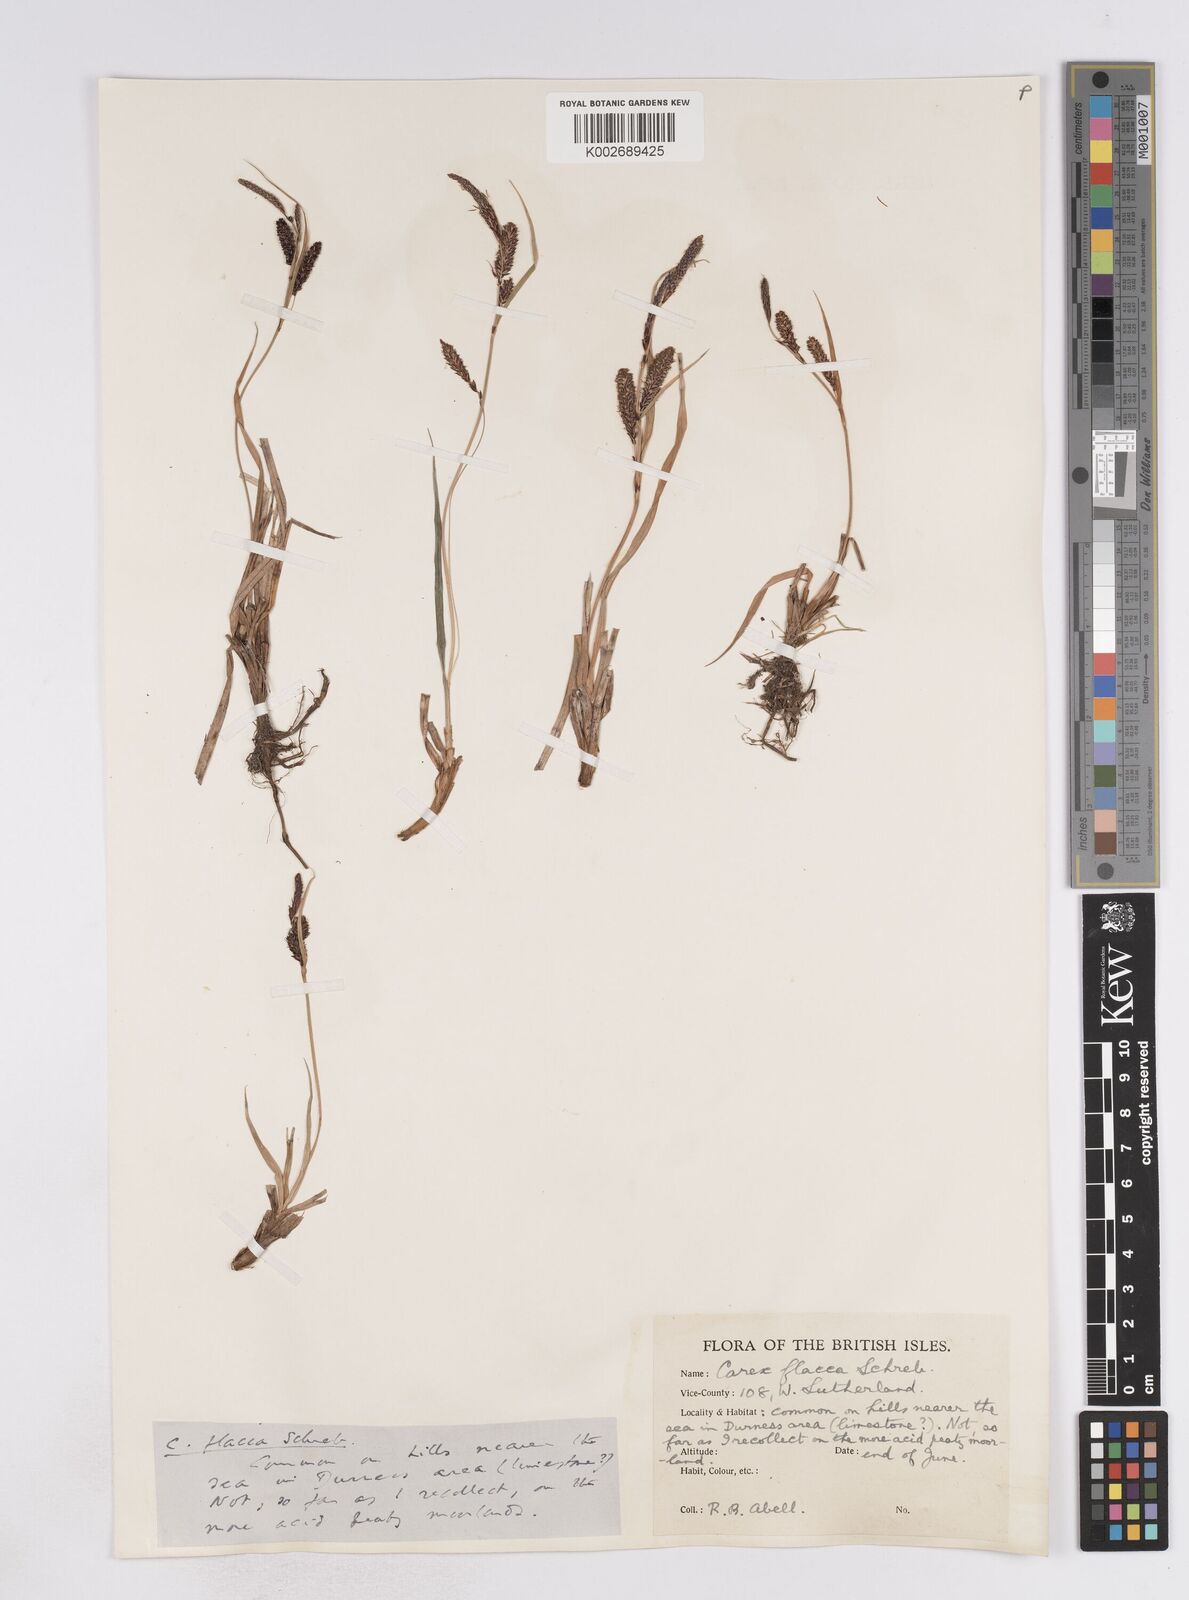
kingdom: Plantae
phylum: Tracheophyta
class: Liliopsida
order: Poales
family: Cyperaceae
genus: Carex
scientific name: Carex flacca
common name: Glaucous sedge
